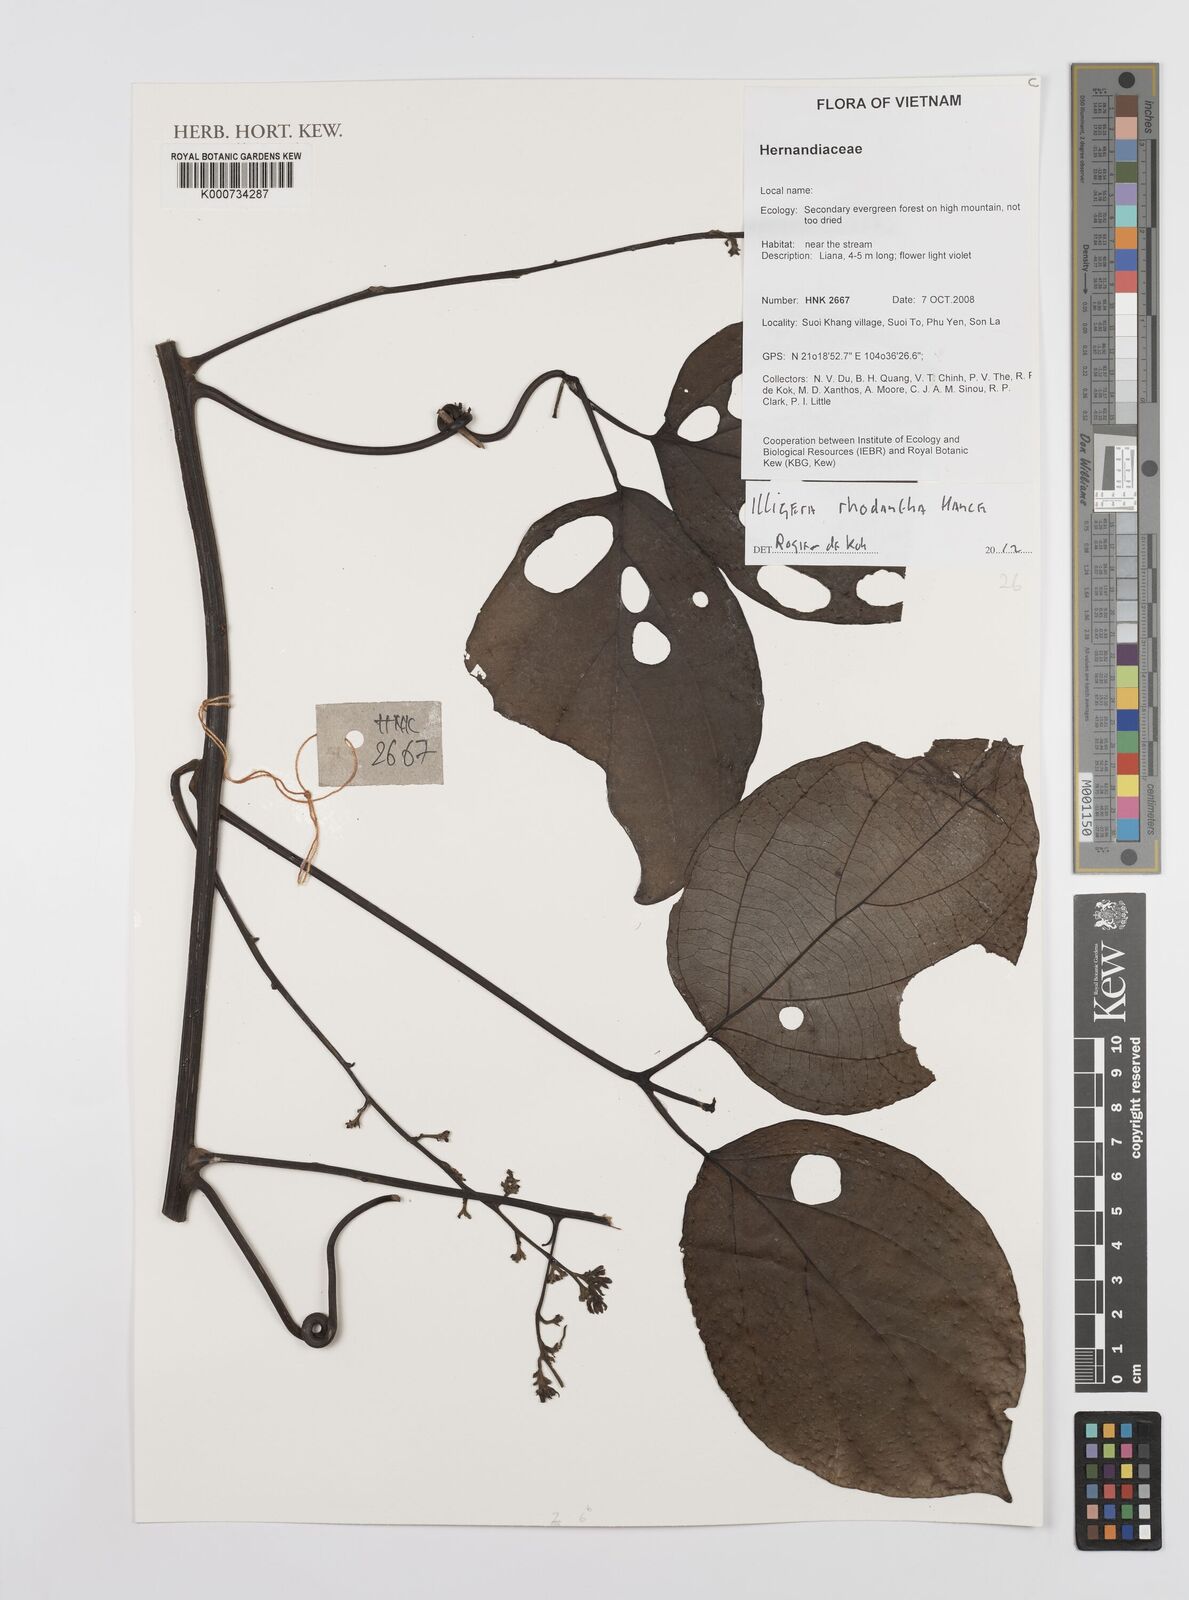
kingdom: Plantae
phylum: Tracheophyta
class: Magnoliopsida
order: Laurales
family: Hernandiaceae
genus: Illigera
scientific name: Illigera rhodantha
